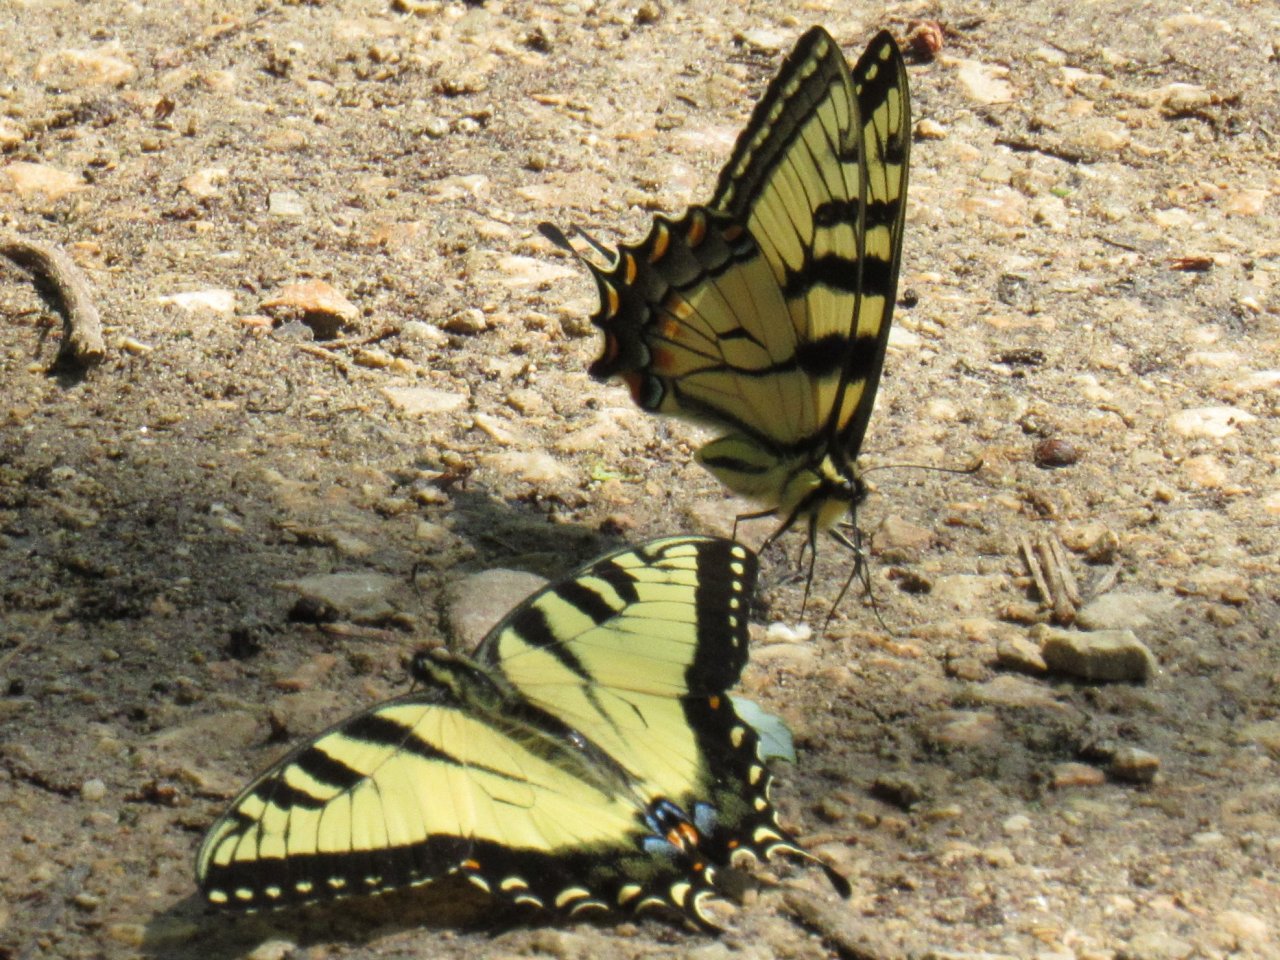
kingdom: Animalia
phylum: Arthropoda
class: Insecta
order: Lepidoptera
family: Papilionidae
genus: Pterourus
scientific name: Pterourus glaucus
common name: Eastern Tiger Swallowtail
